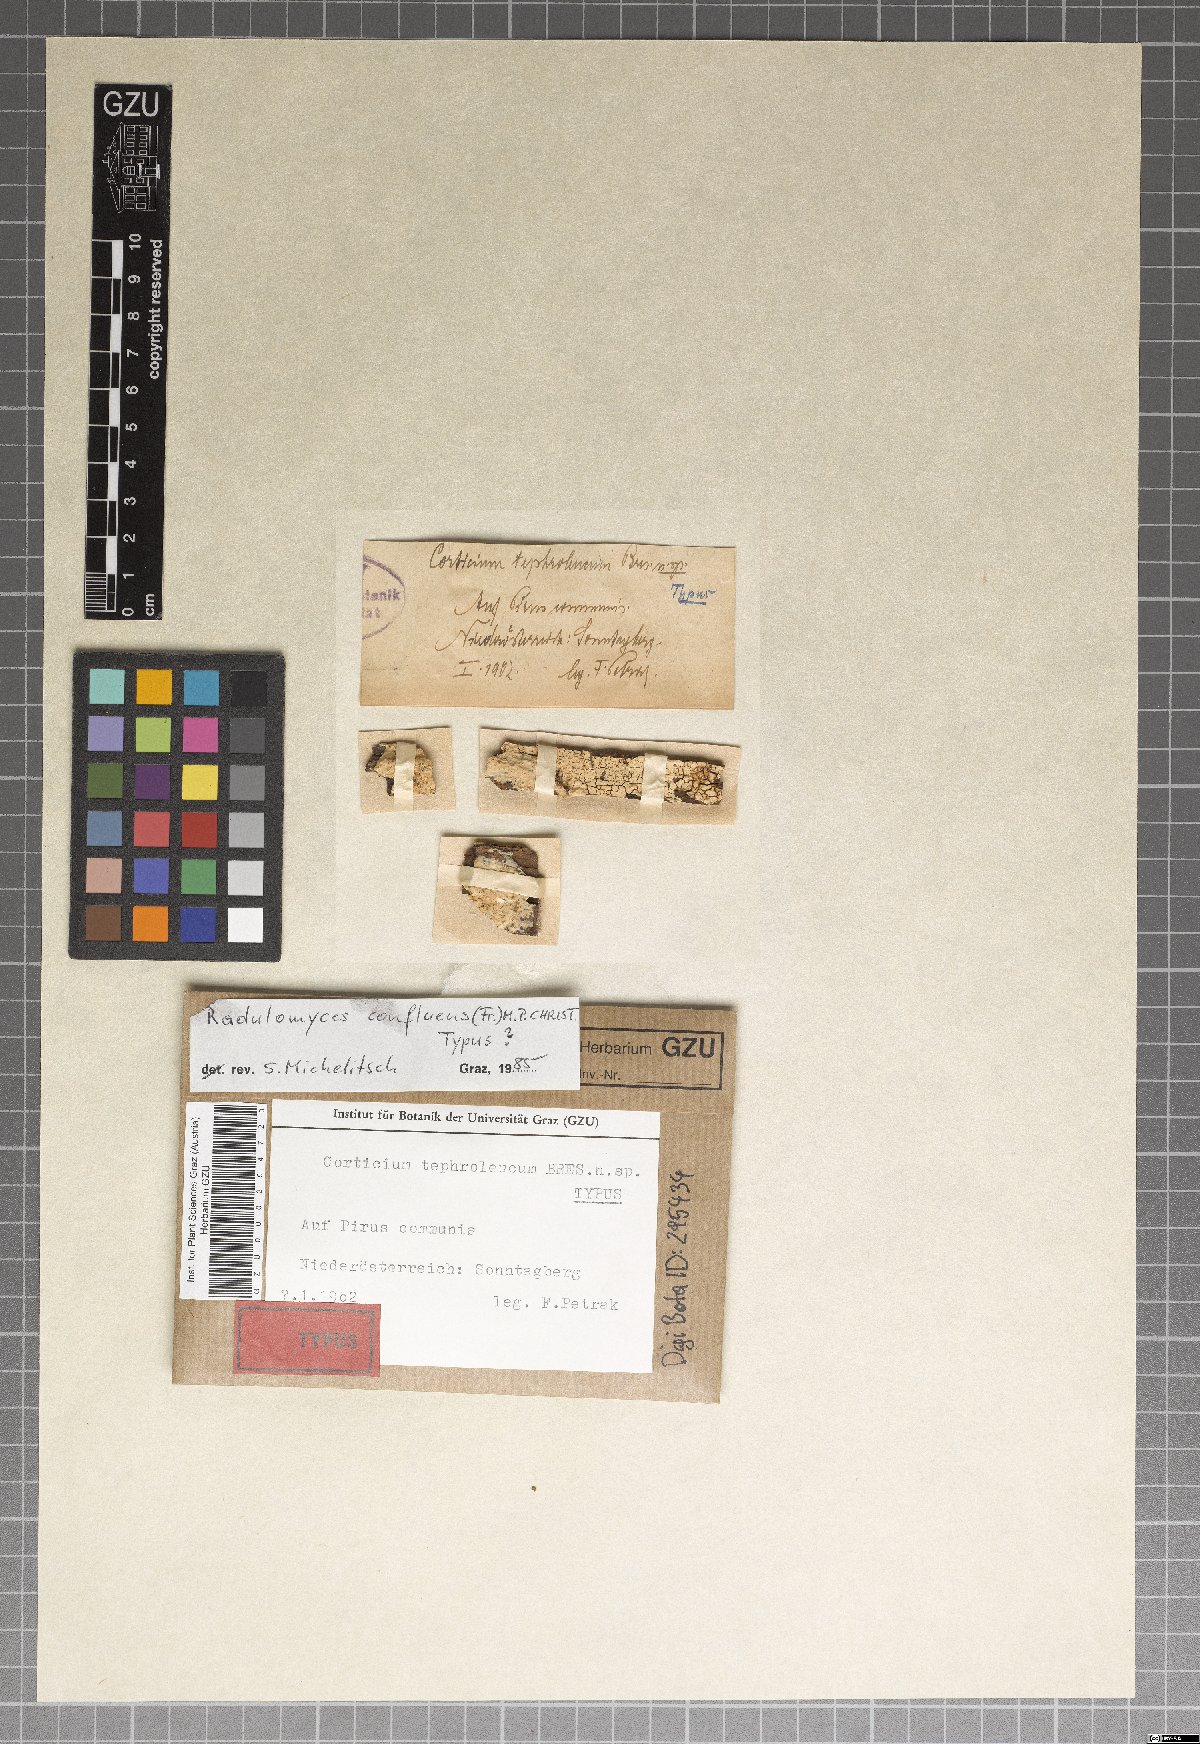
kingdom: Fungi
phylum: Basidiomycota
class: Agaricomycetes
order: Agaricales
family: Radulomycetaceae
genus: Radulomyces
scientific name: Radulomyces confluens
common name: Confluent radulomyces
